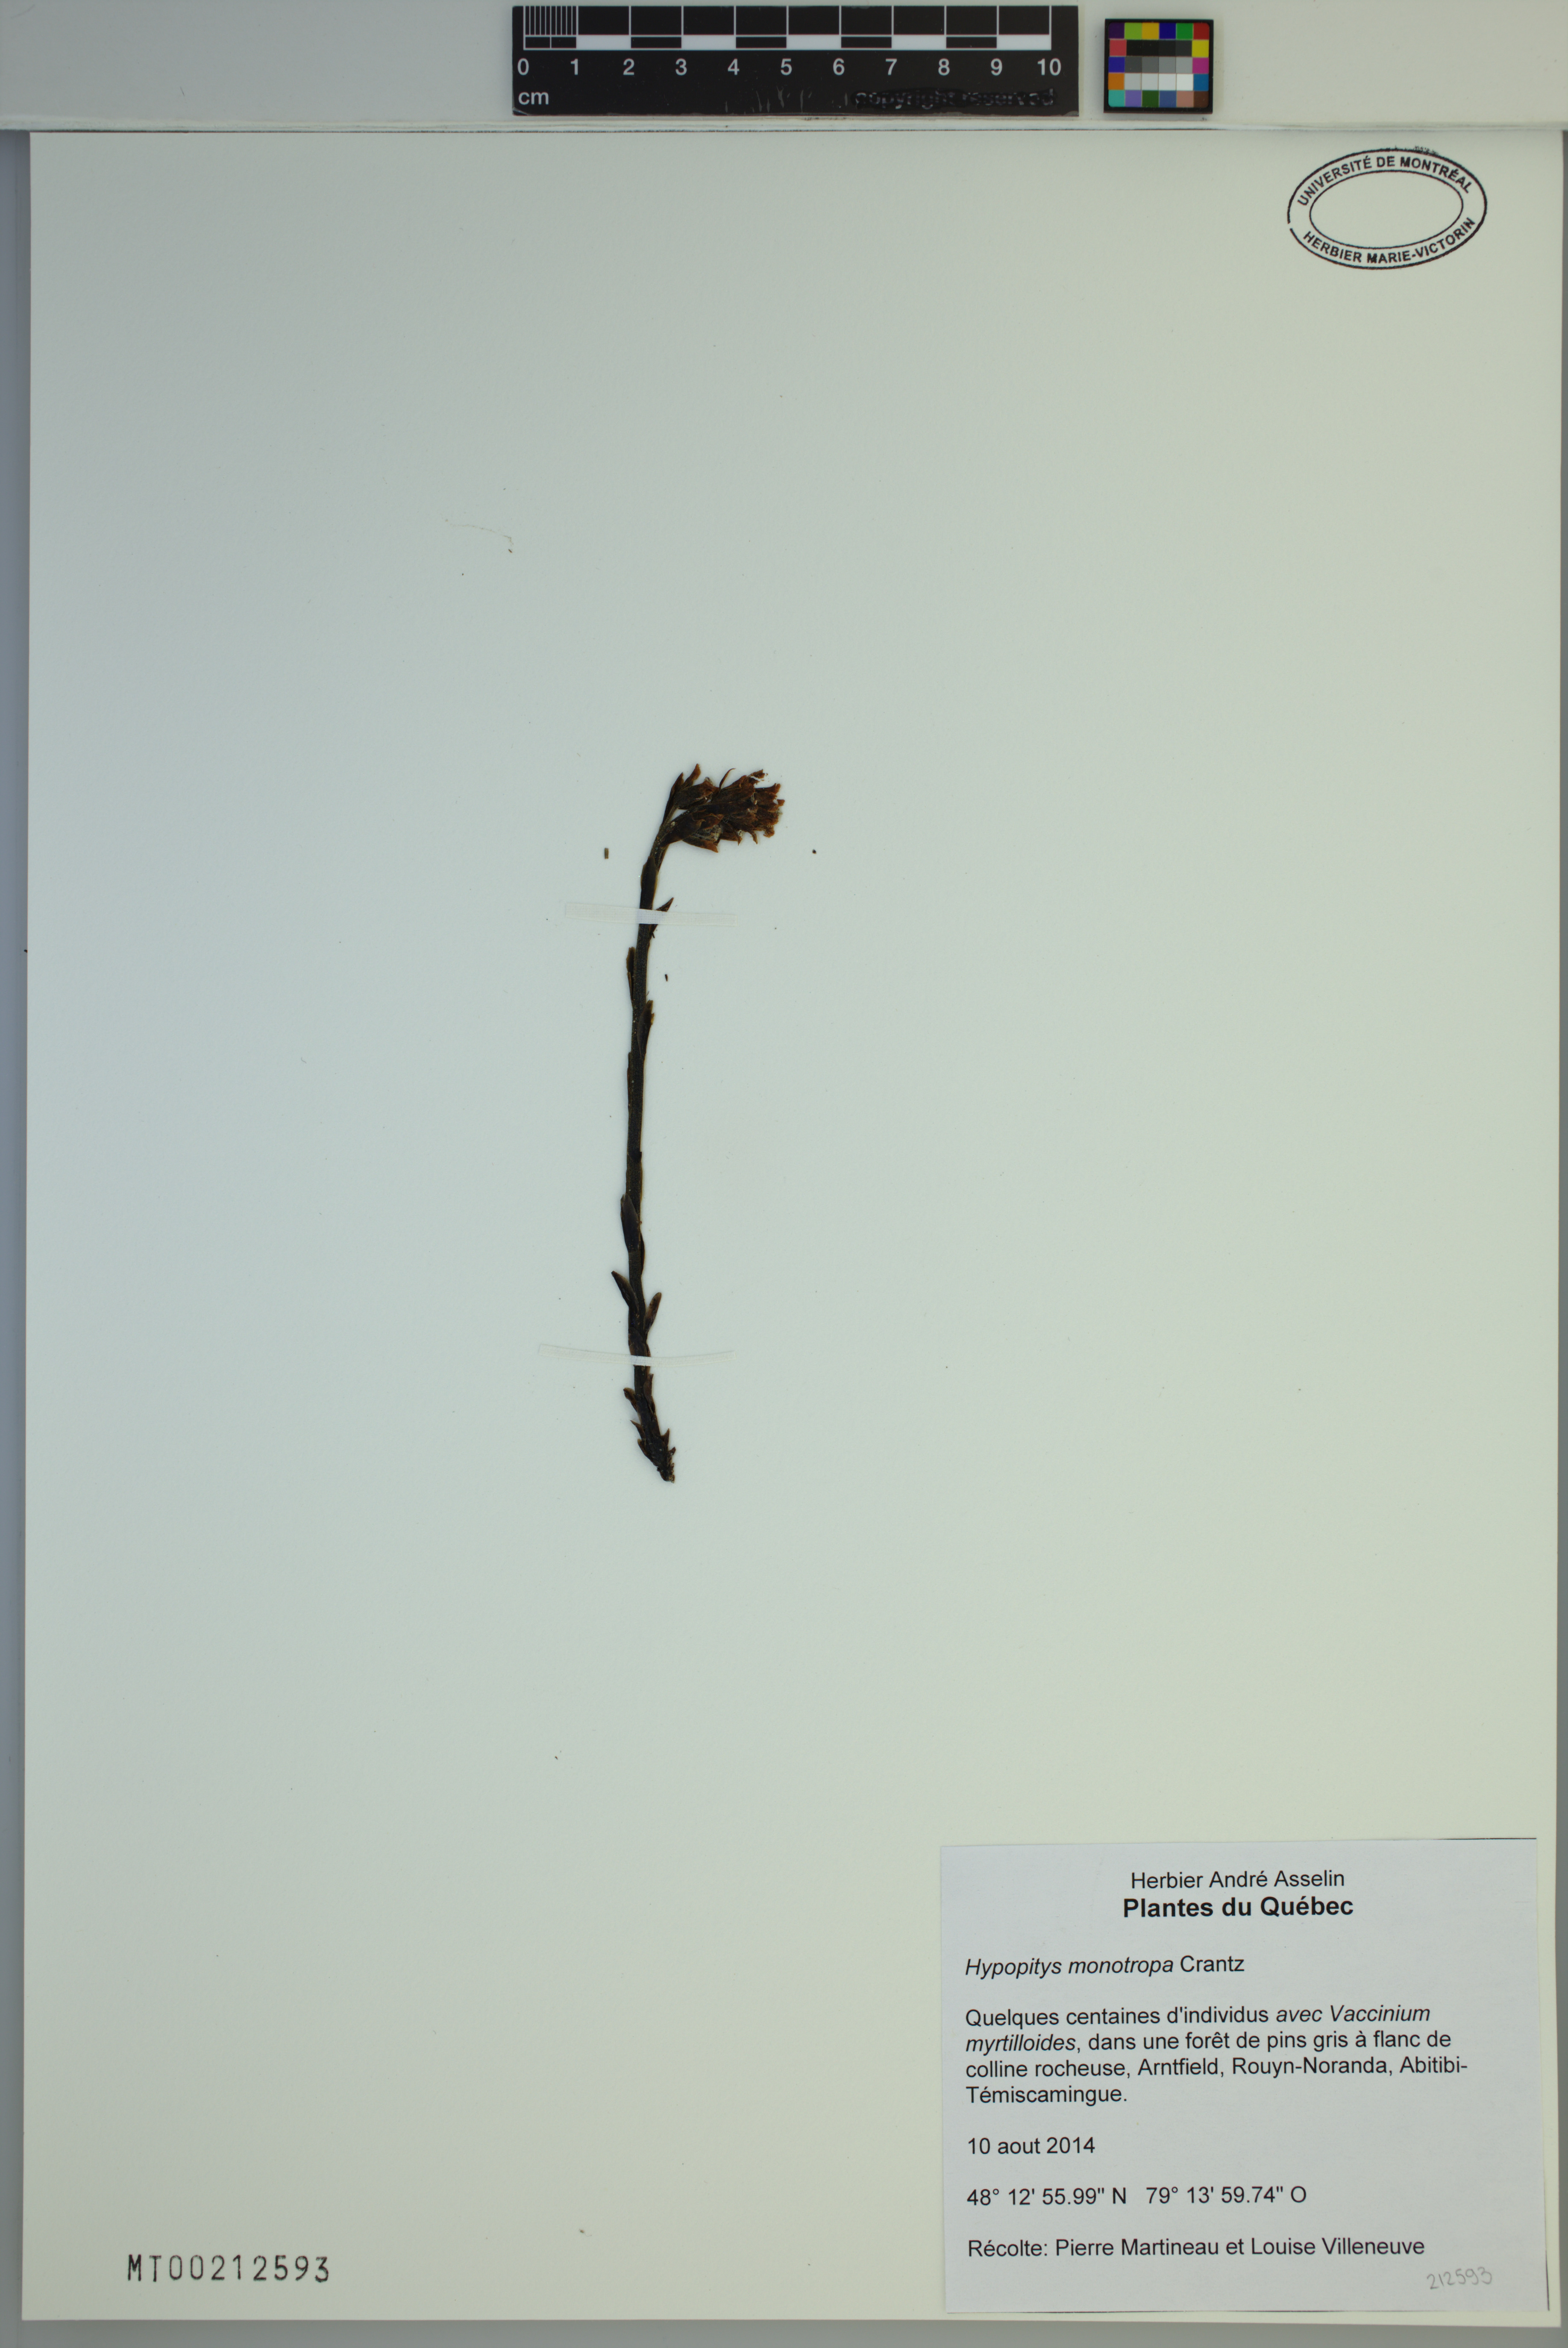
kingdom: Plantae
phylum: Tracheophyta
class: Magnoliopsida
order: Ericales
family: Ericaceae
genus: Hypopitys
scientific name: Hypopitys monotropa
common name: Yellow bird's-nest
